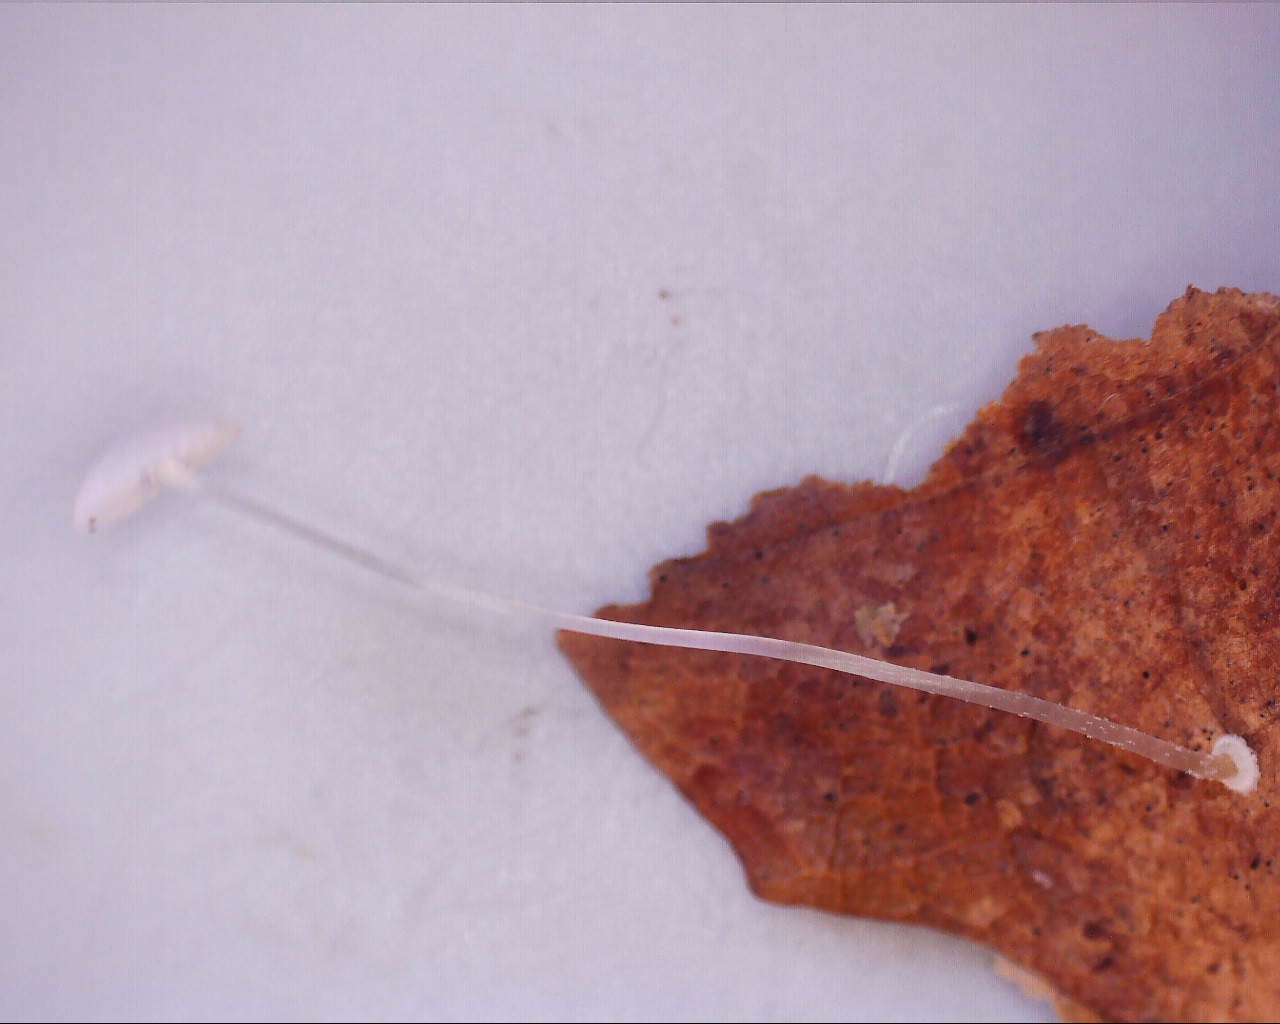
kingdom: Fungi
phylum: Basidiomycota
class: Agaricomycetes
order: Agaricales
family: Mycenaceae
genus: Mycena
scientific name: Mycena stylobates
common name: fureskivet huesvamp
